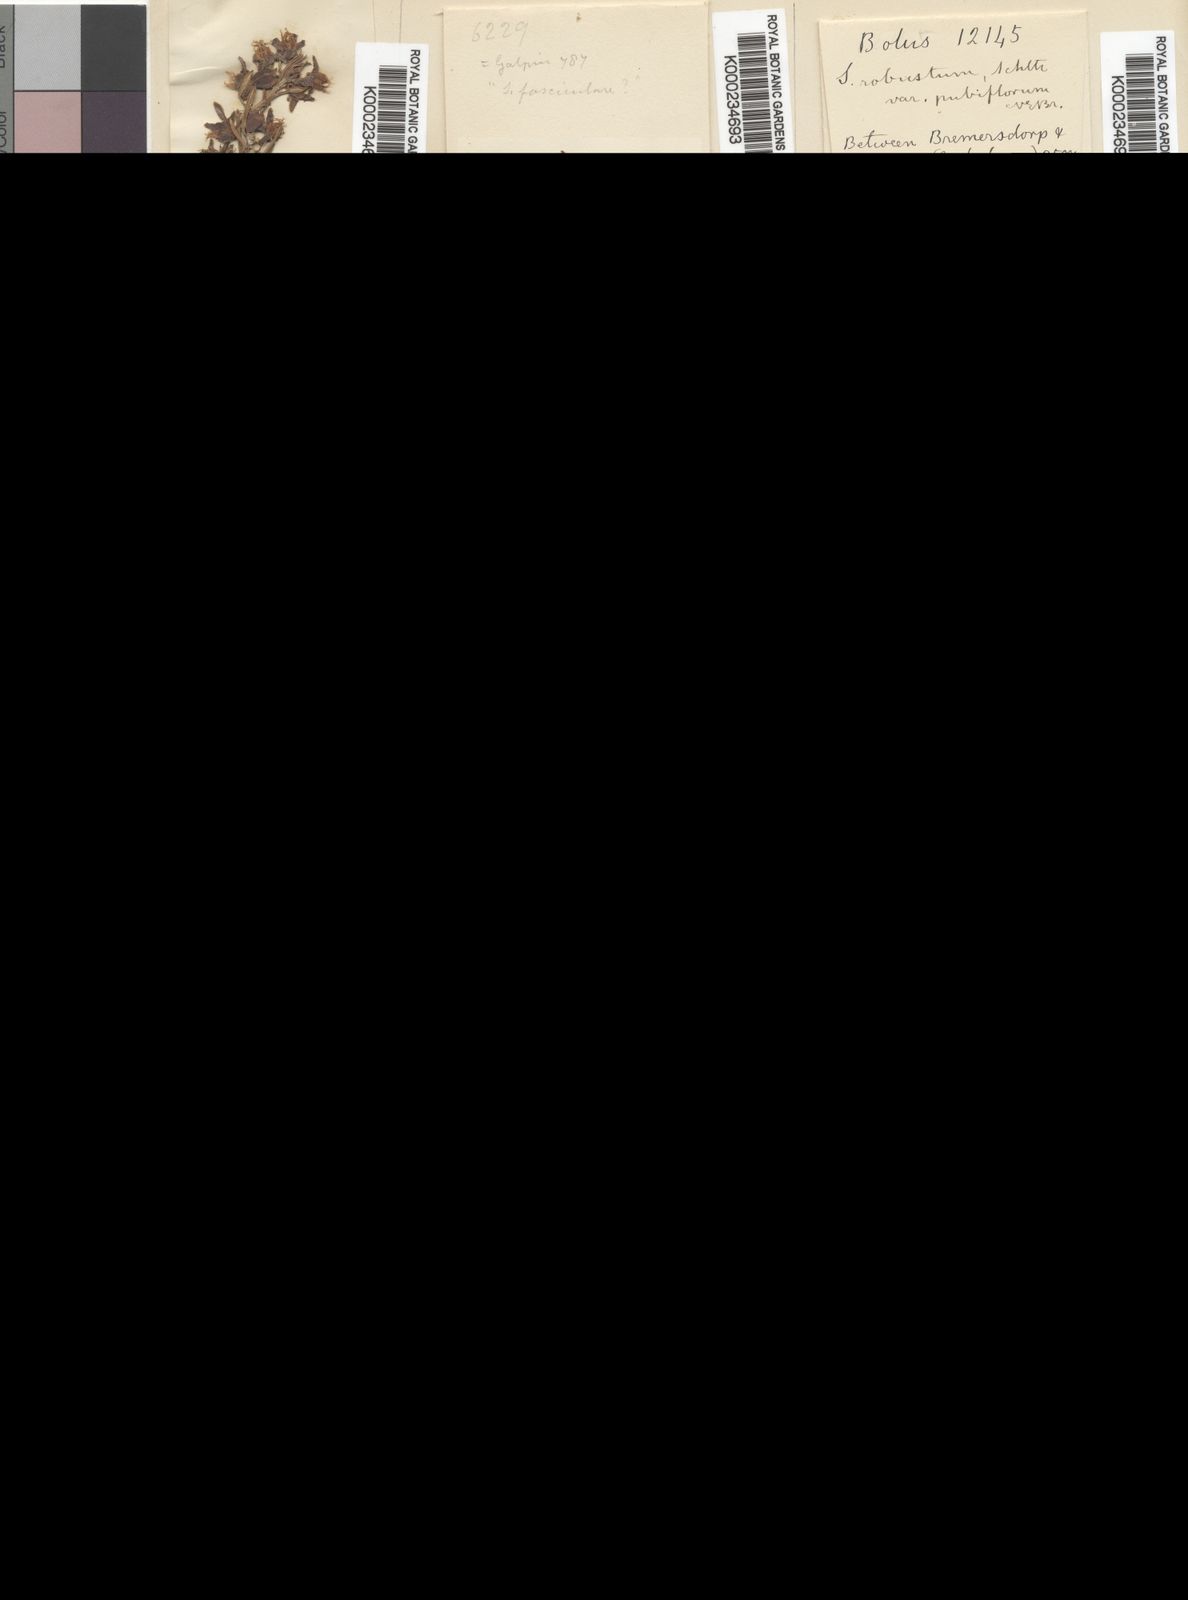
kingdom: Plantae
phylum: Tracheophyta
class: Magnoliopsida
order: Gentianales
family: Apocynaceae
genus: Aspidoglossum
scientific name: Aspidoglossum ovalifolium
